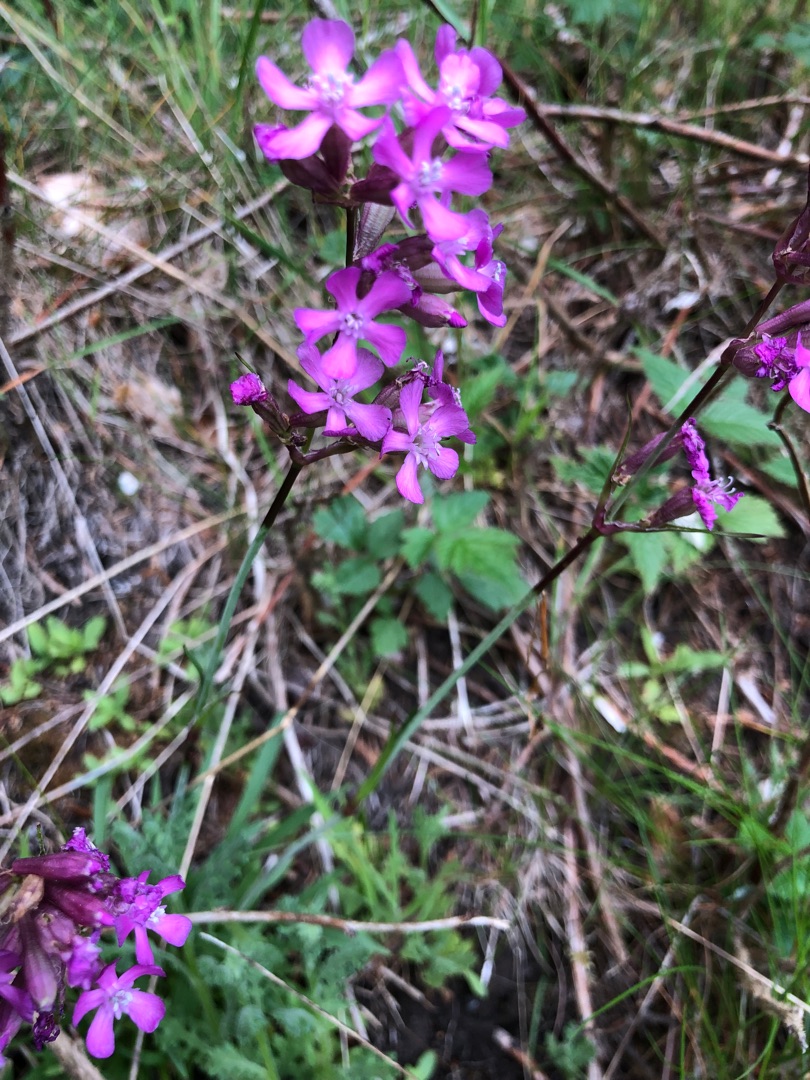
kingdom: Plantae
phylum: Tracheophyta
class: Magnoliopsida
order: Caryophyllales
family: Caryophyllaceae
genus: Viscaria
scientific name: Viscaria vulgaris
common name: Tjærenellike
